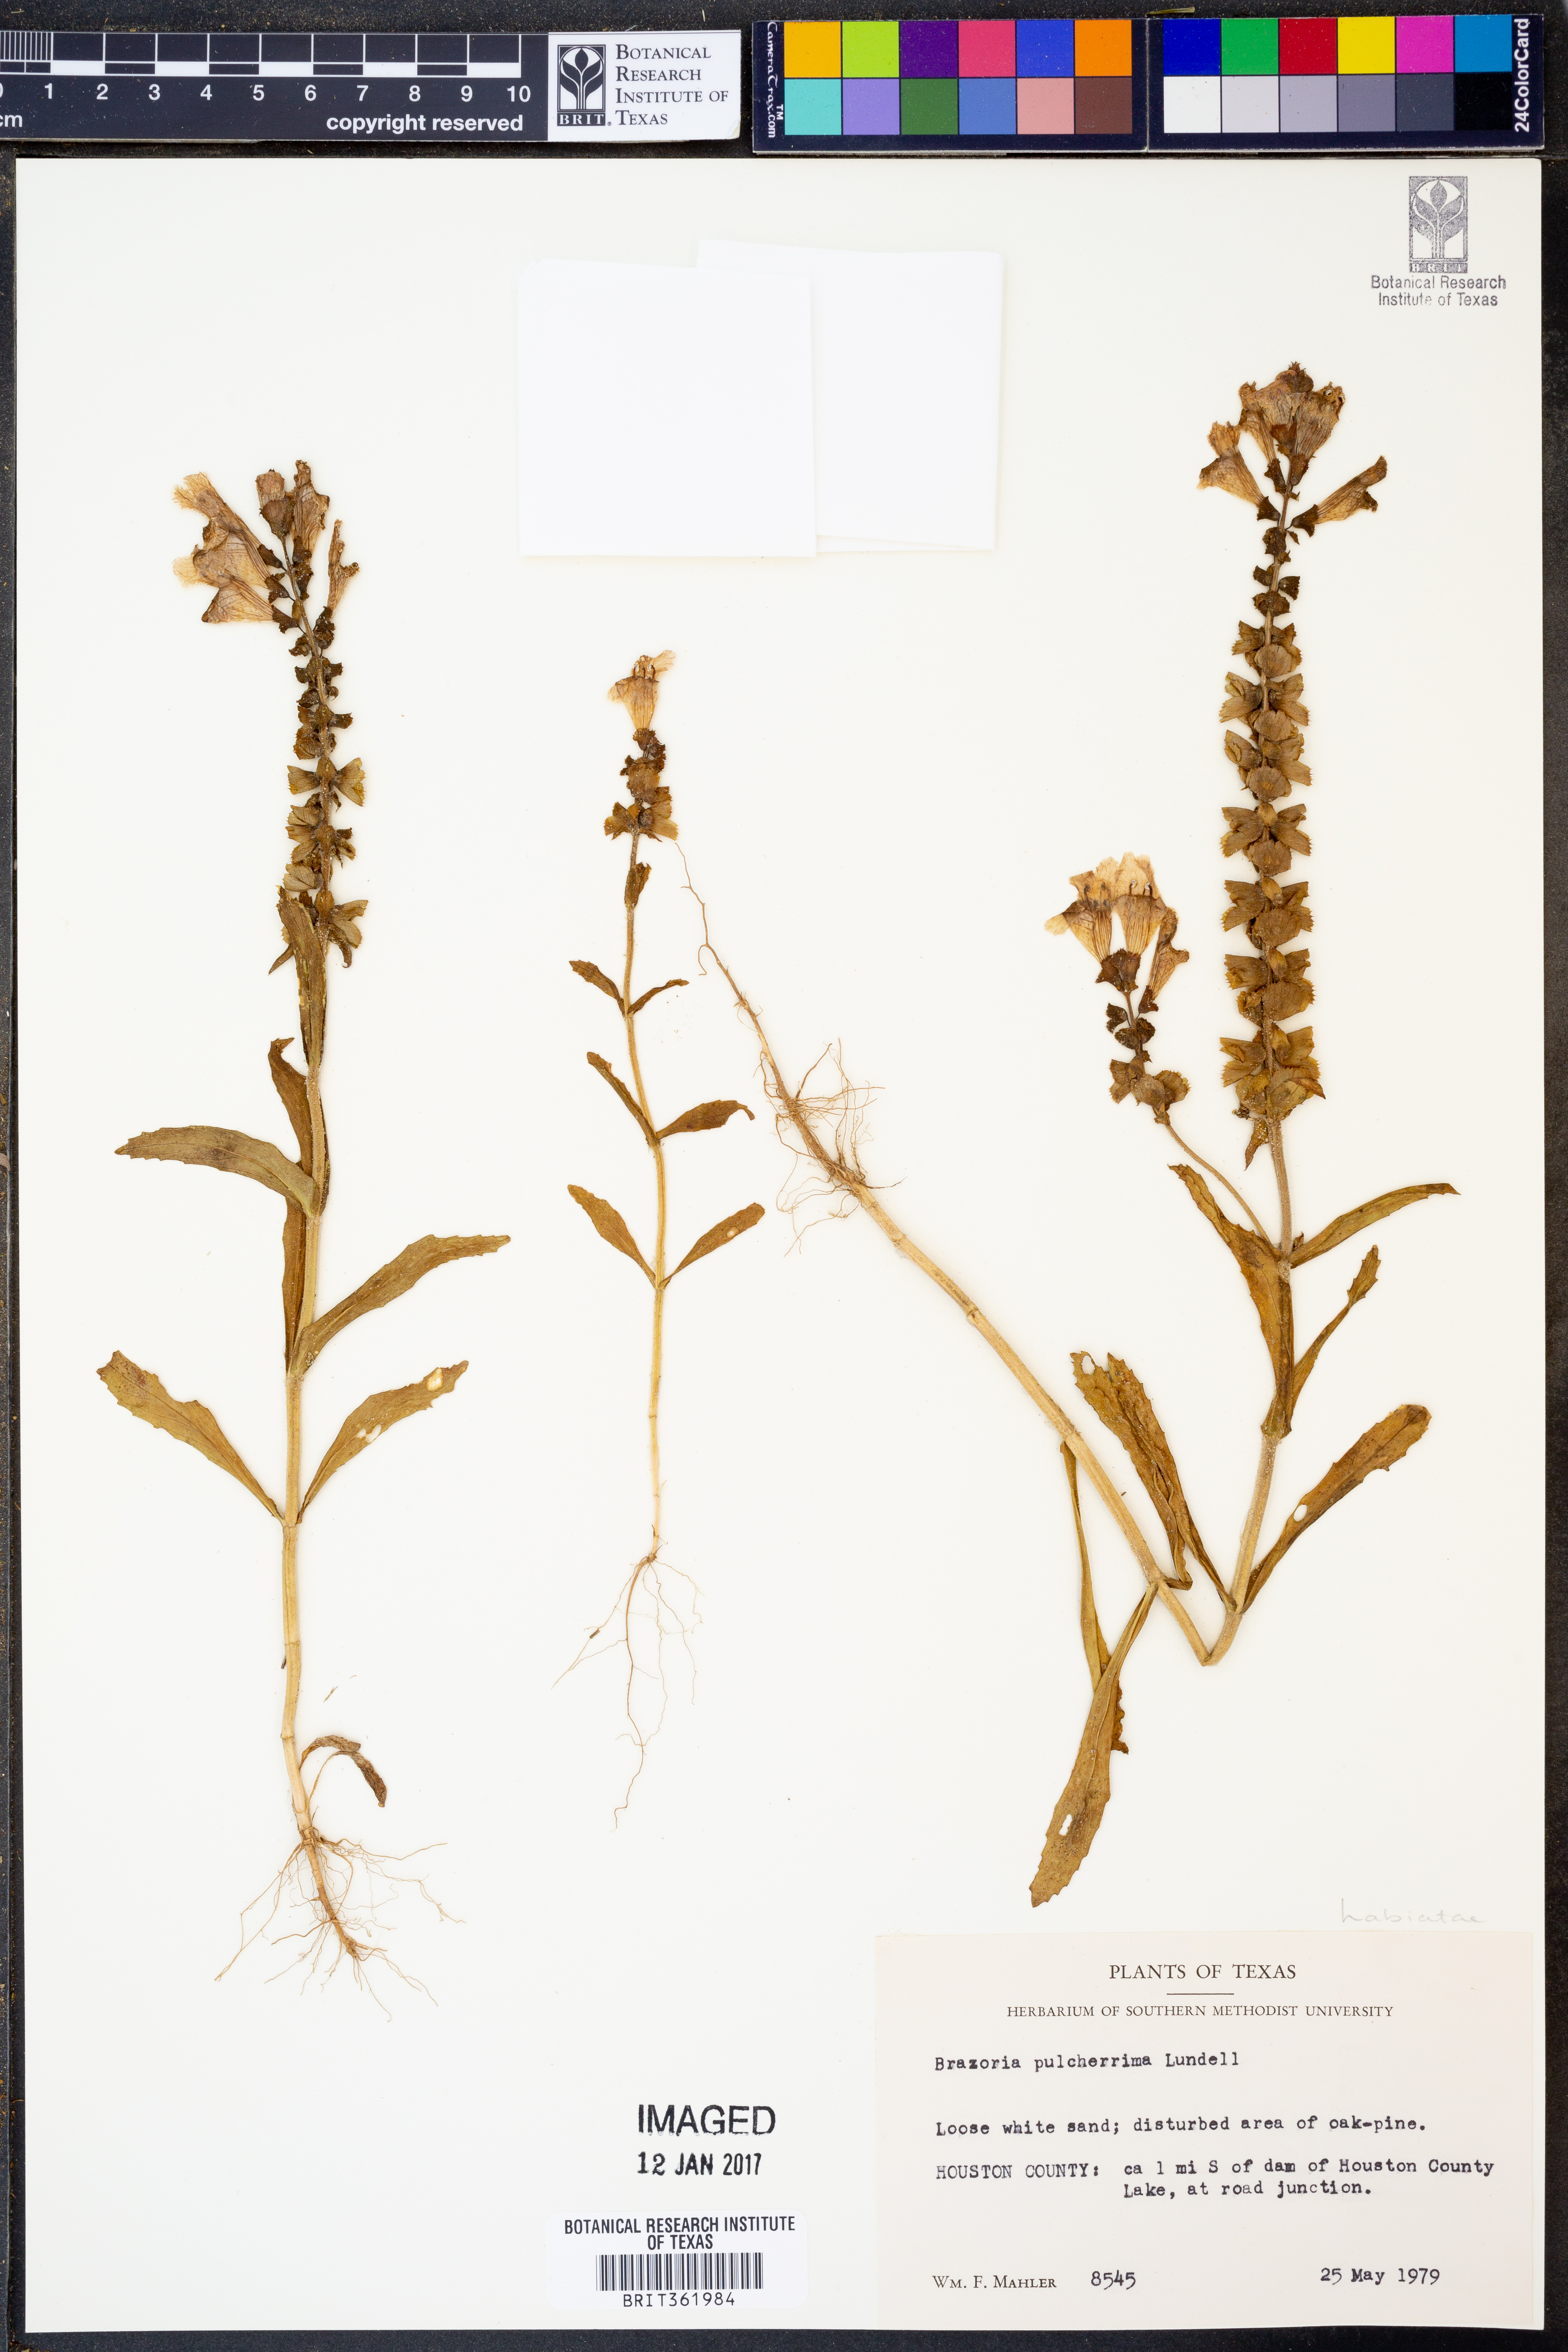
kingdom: Plantae
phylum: Tracheophyta
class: Magnoliopsida
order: Lamiales
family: Lamiaceae
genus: Brazoria
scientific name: Brazoria truncata
